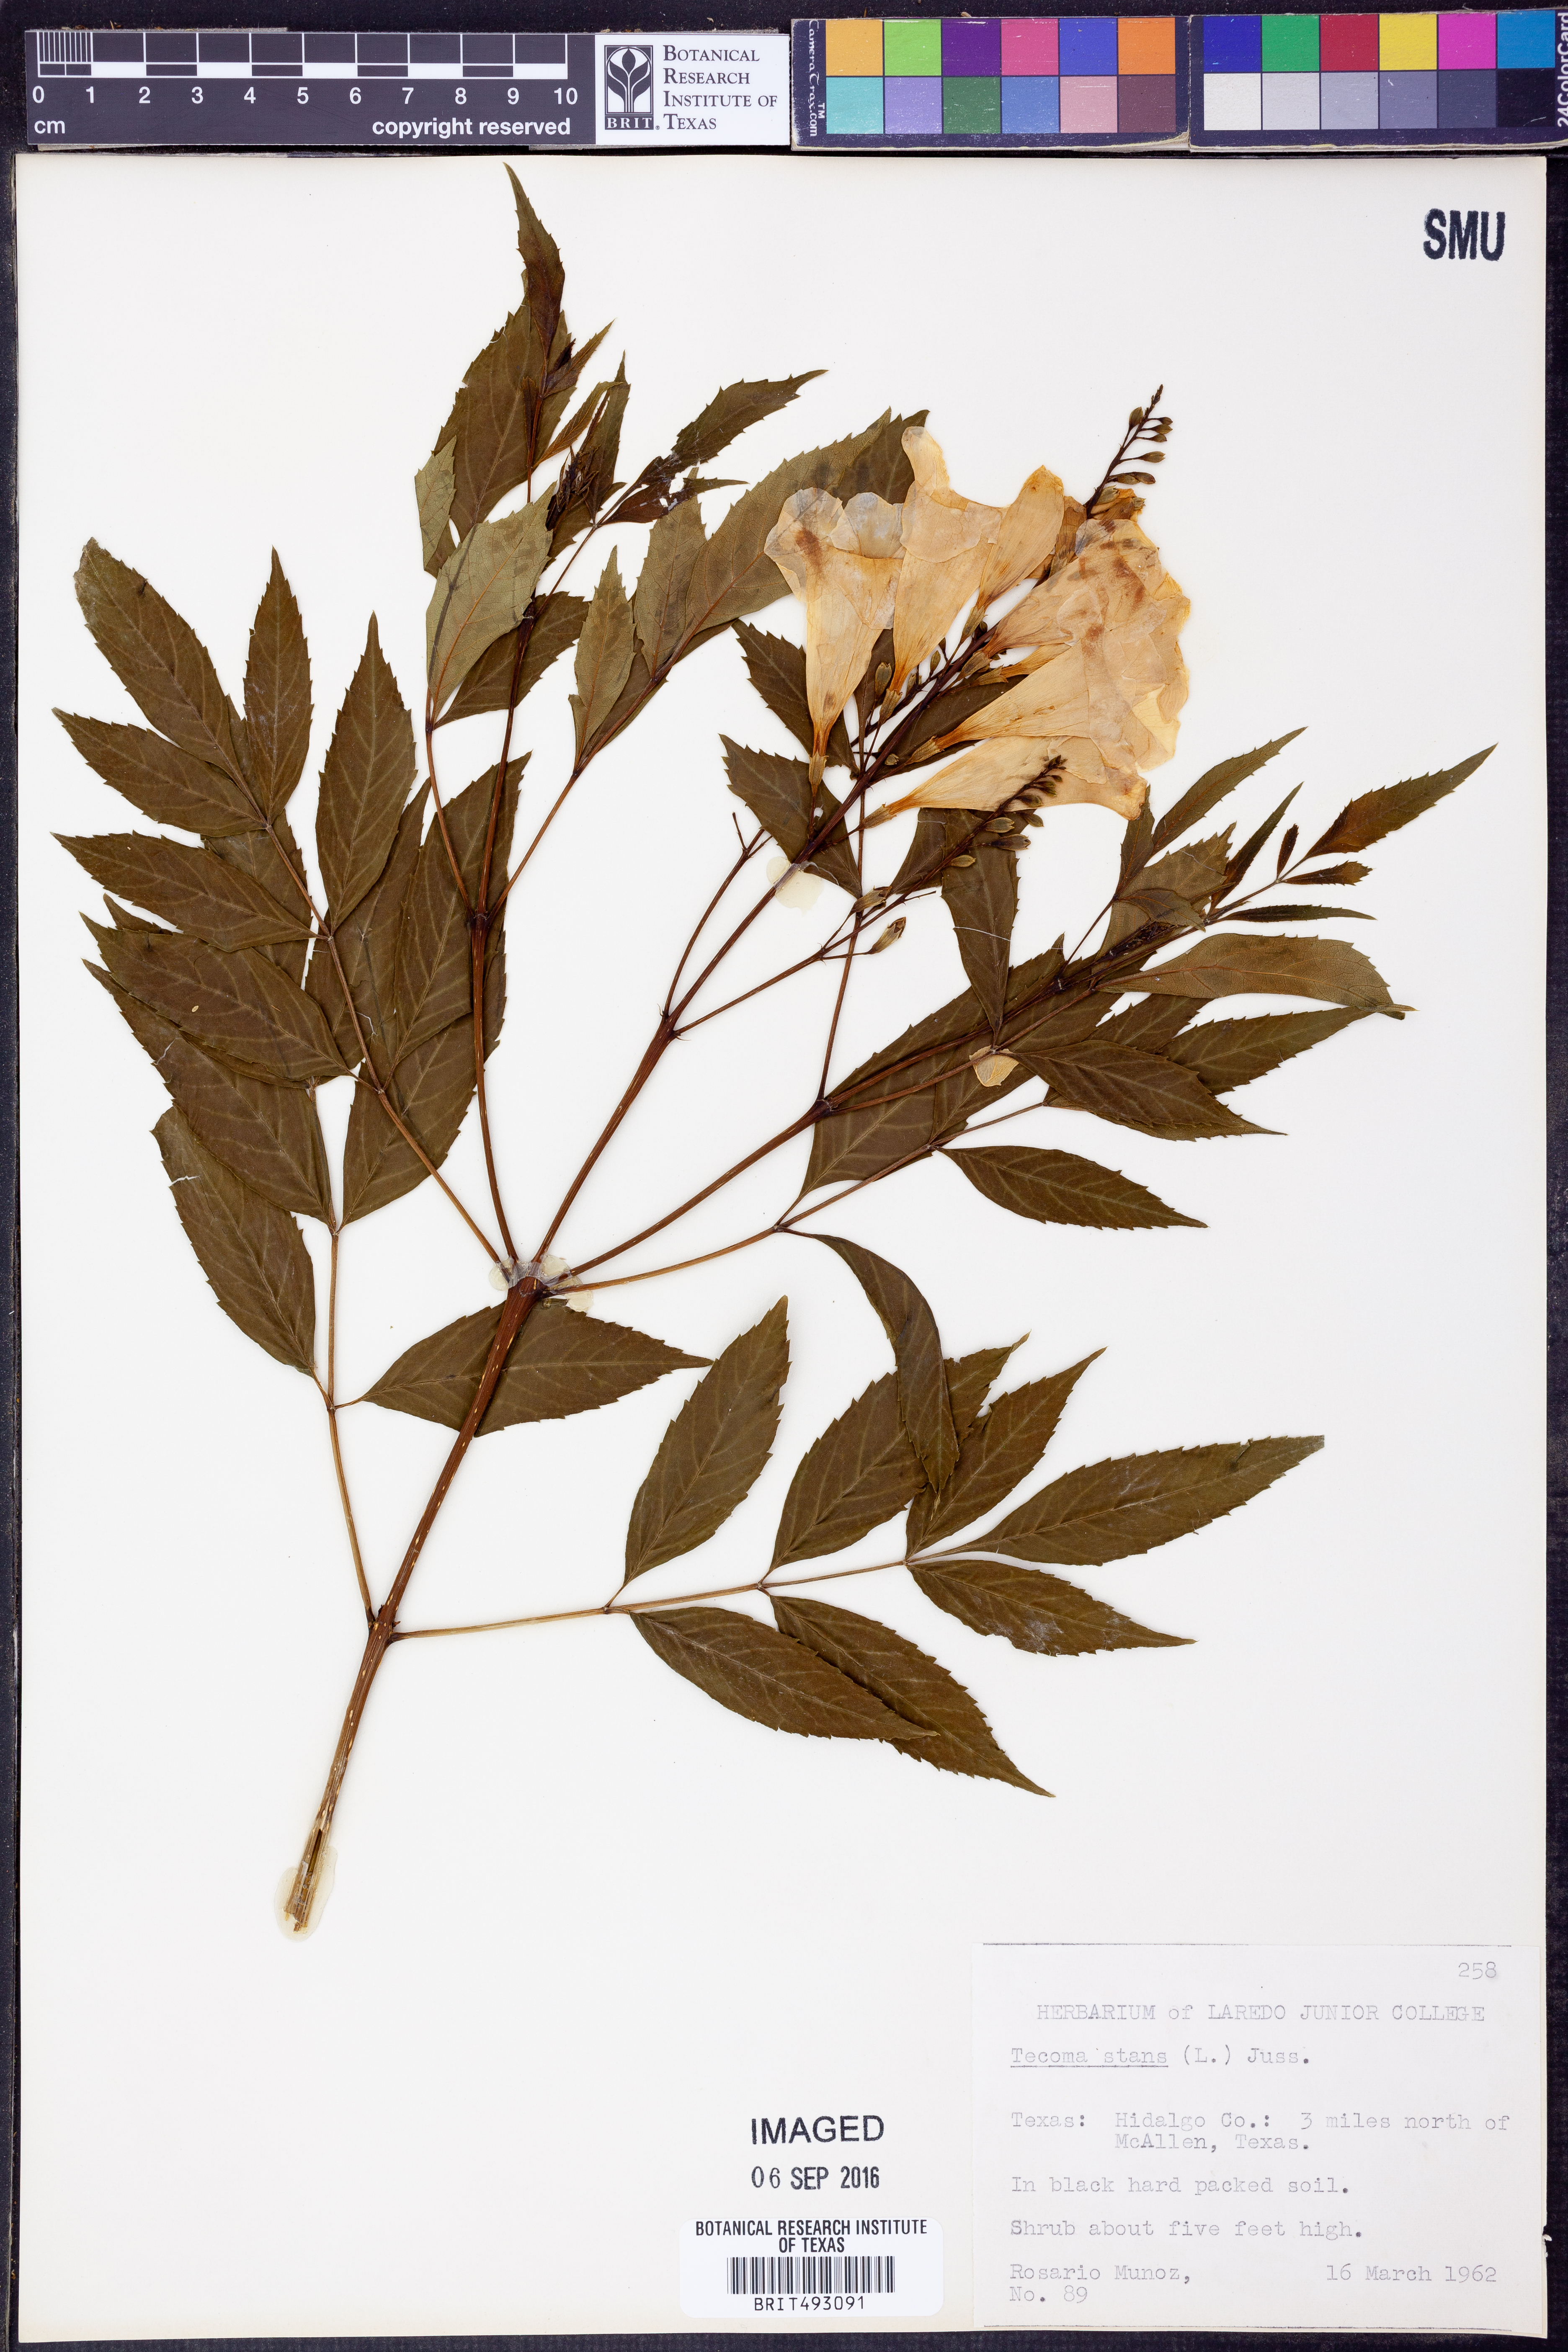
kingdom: Plantae
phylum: Tracheophyta
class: Magnoliopsida
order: Lamiales
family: Bignoniaceae
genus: Tecoma
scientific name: Tecoma stans
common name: Yellow trumpetbush
